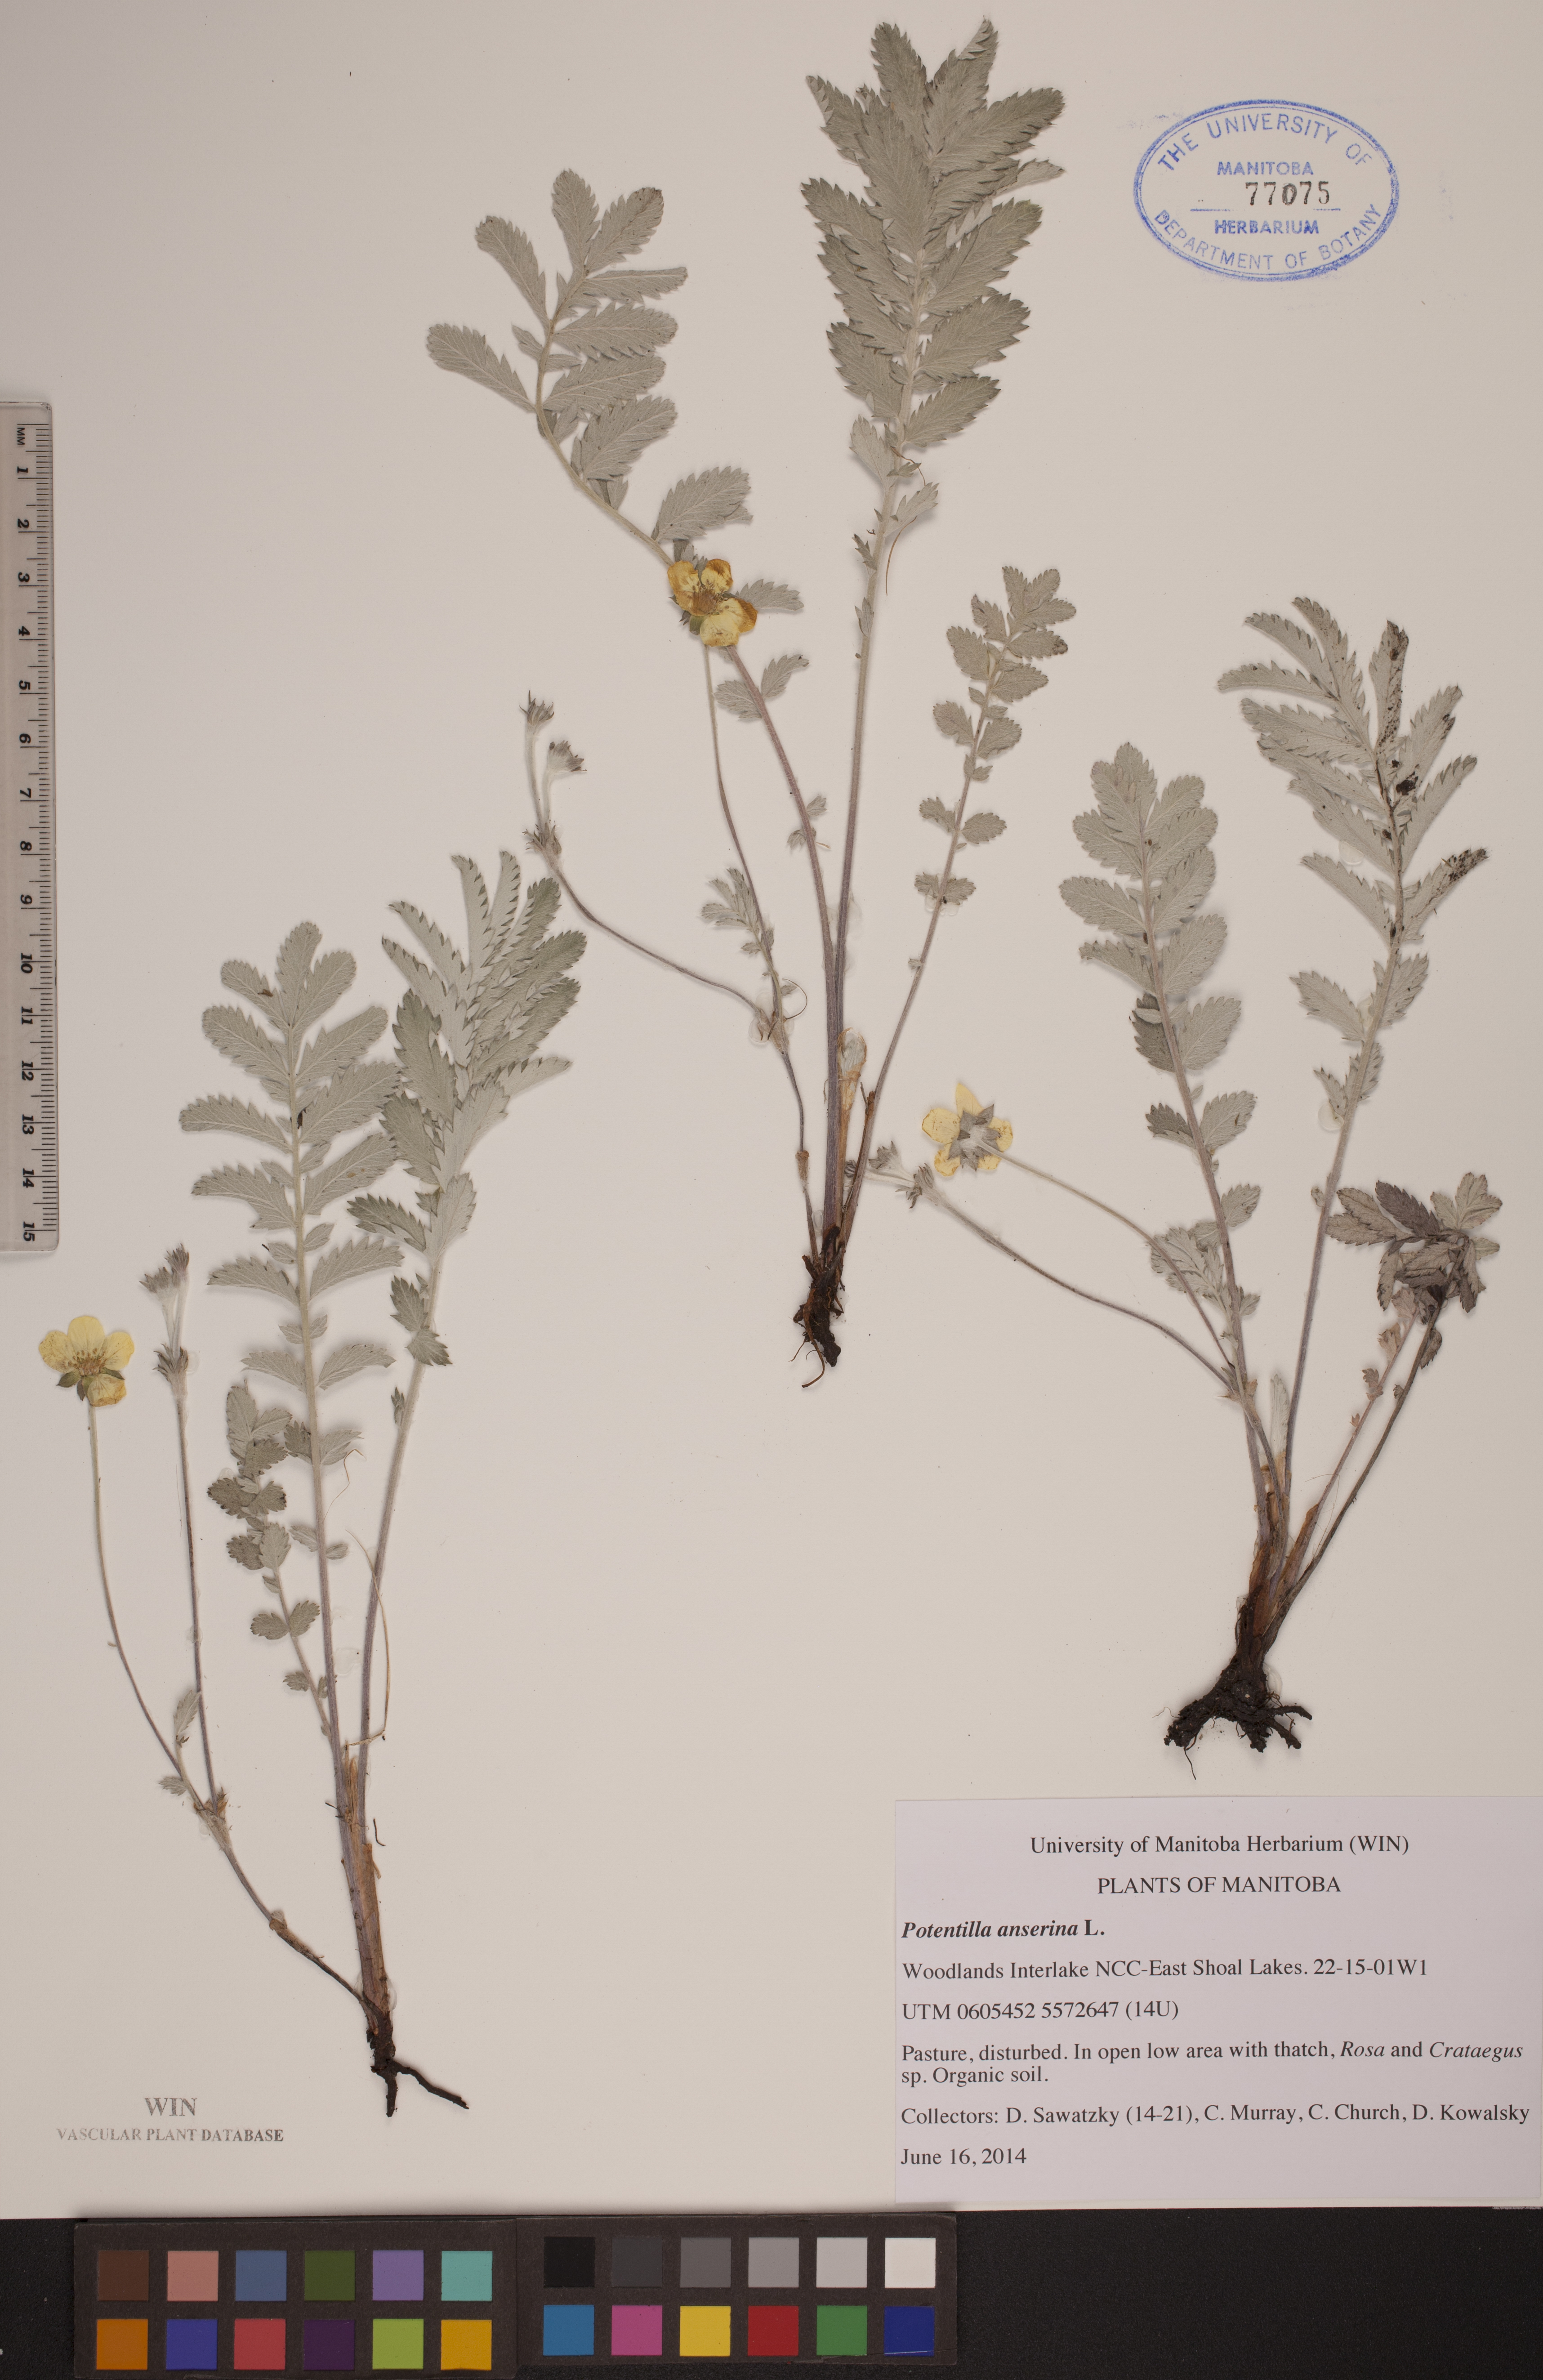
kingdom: Plantae
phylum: Tracheophyta
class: Magnoliopsida
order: Rosales
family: Rosaceae
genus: Argentina
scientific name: Argentina anserina
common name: Common silverweed
